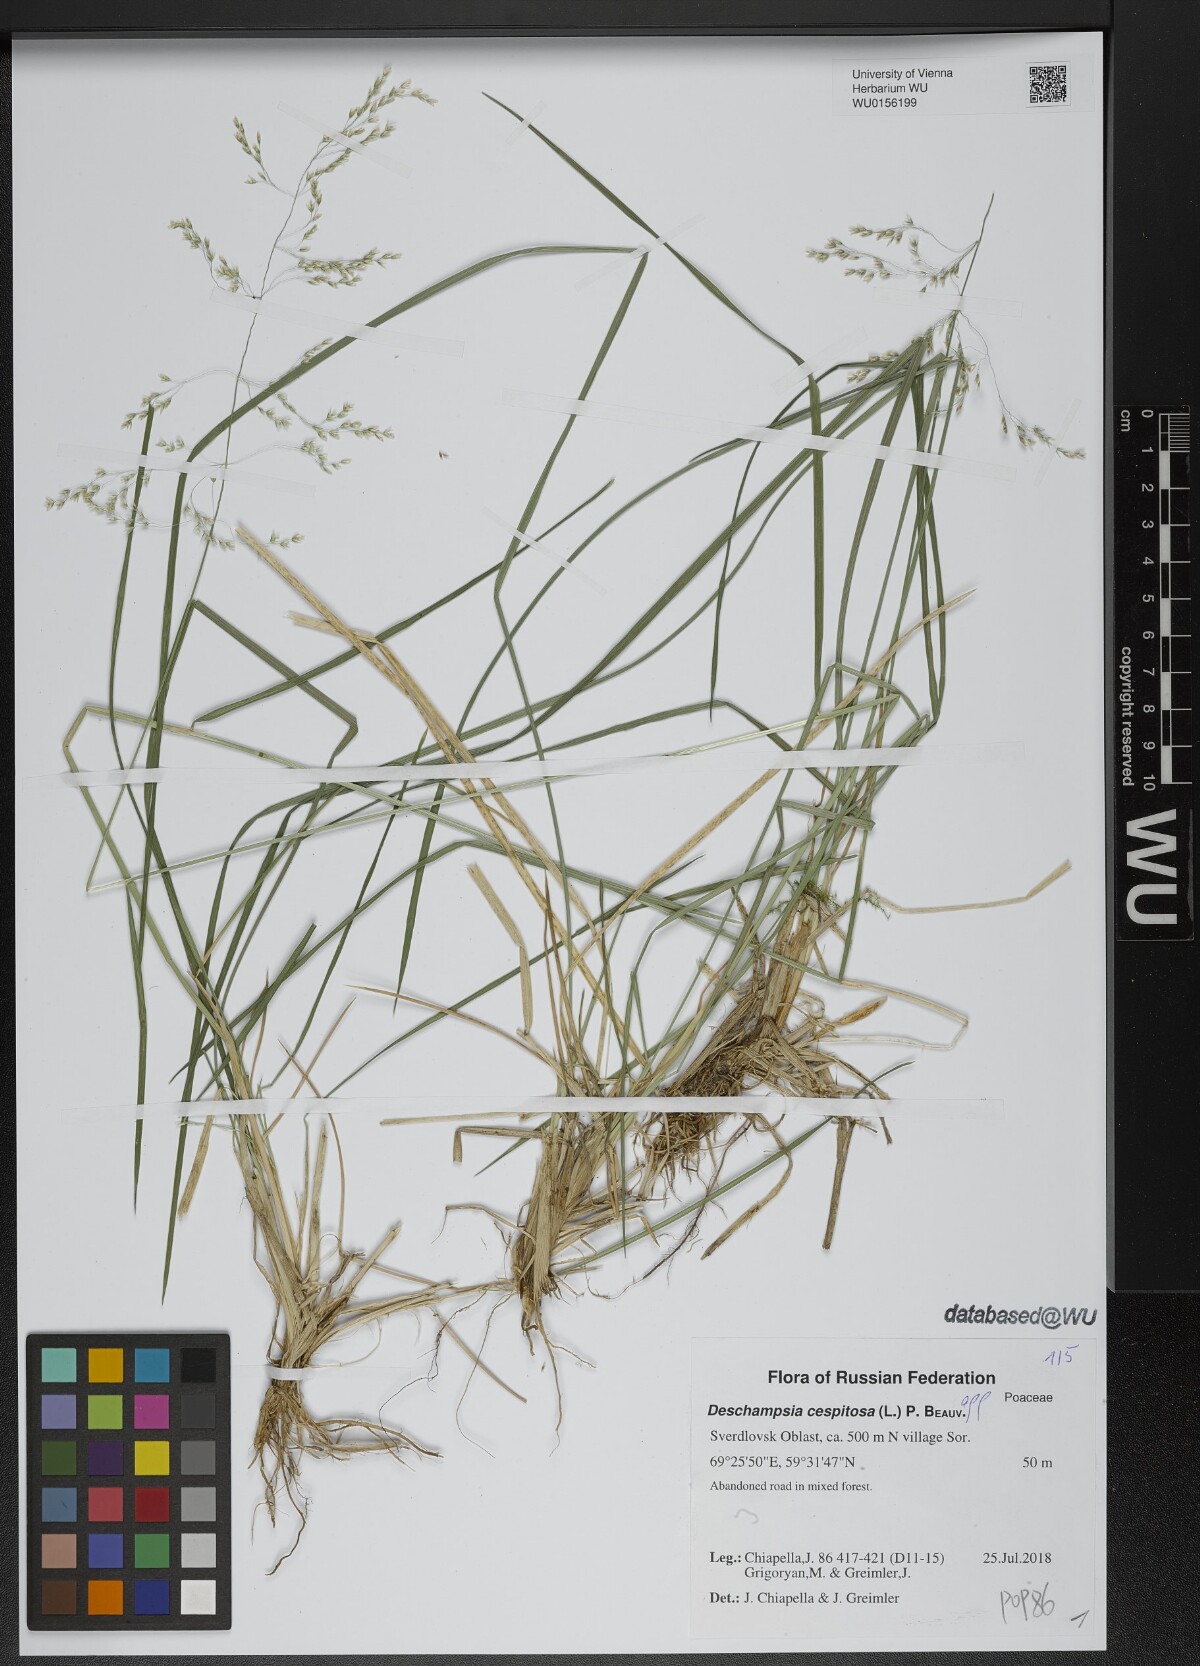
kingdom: Plantae
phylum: Tracheophyta
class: Liliopsida
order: Poales
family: Poaceae
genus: Deschampsia
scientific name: Deschampsia cespitosa
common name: Tufted hair-grass
